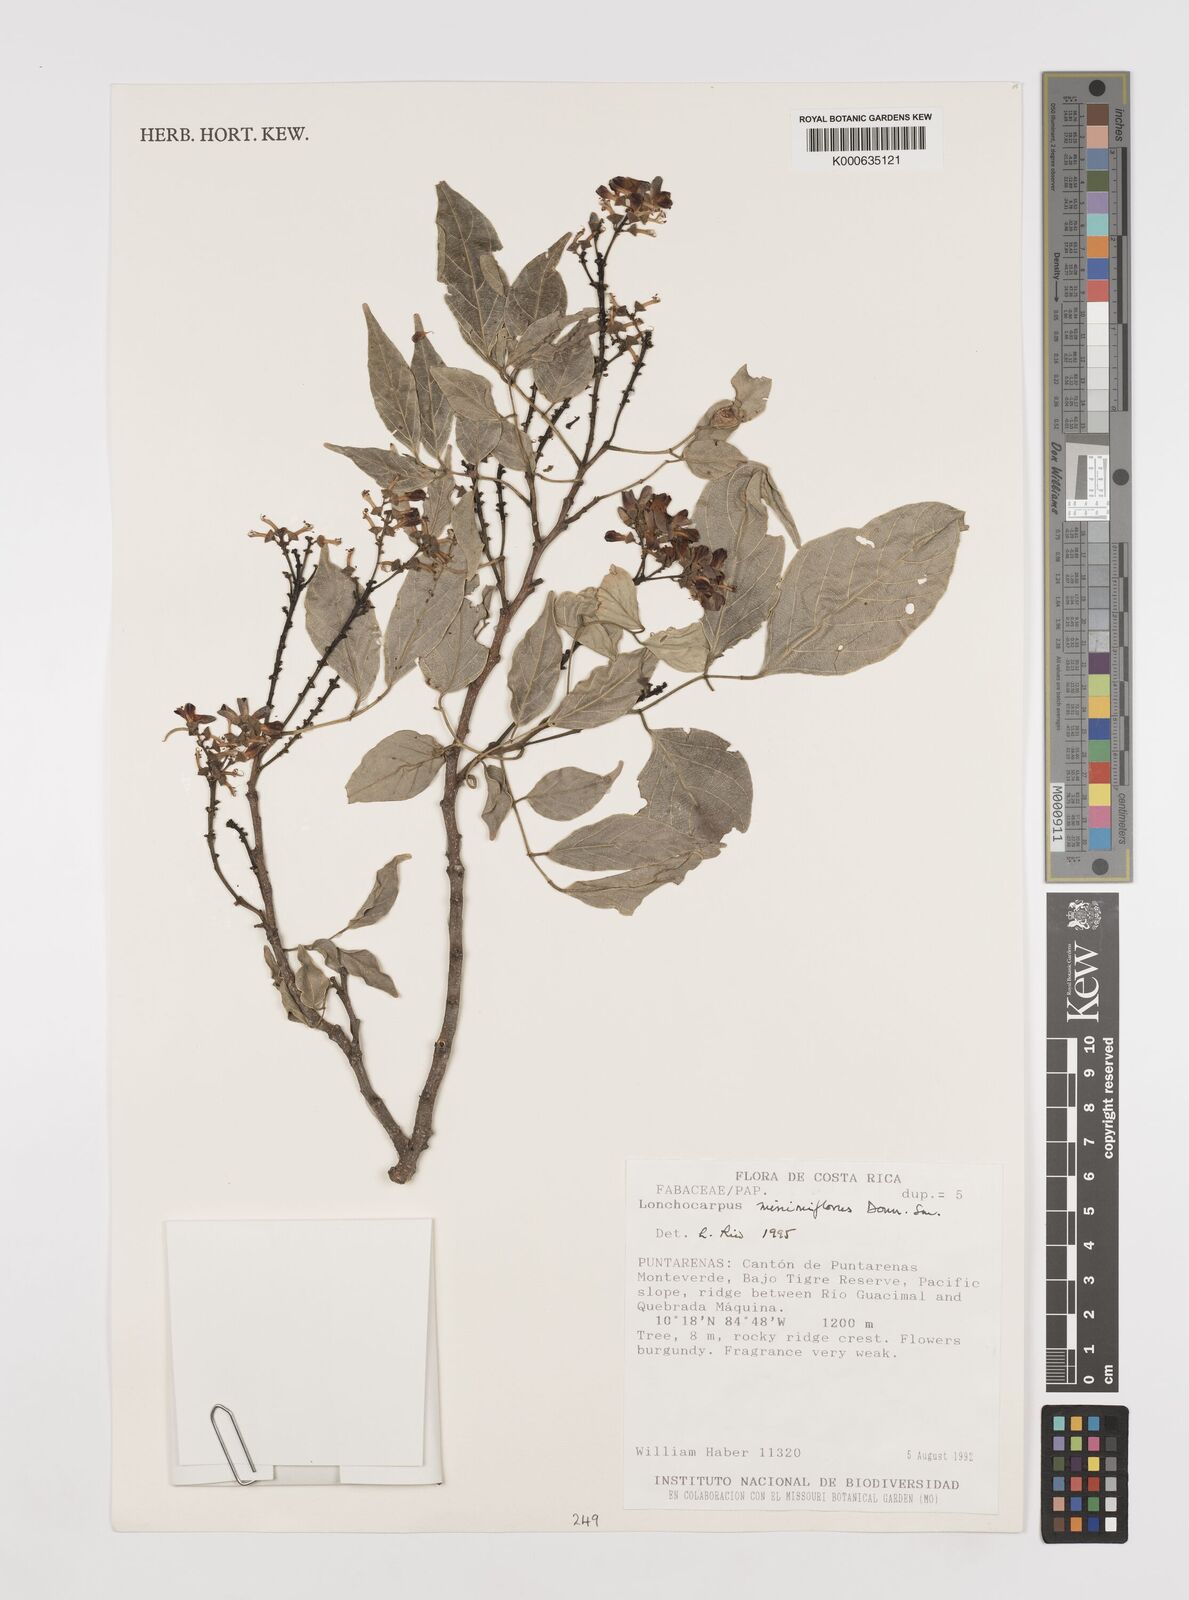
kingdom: Plantae
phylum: Tracheophyta
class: Magnoliopsida
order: Fabales
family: Fabaceae
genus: Lonchocarpus
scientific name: Lonchocarpus minimiflorus
